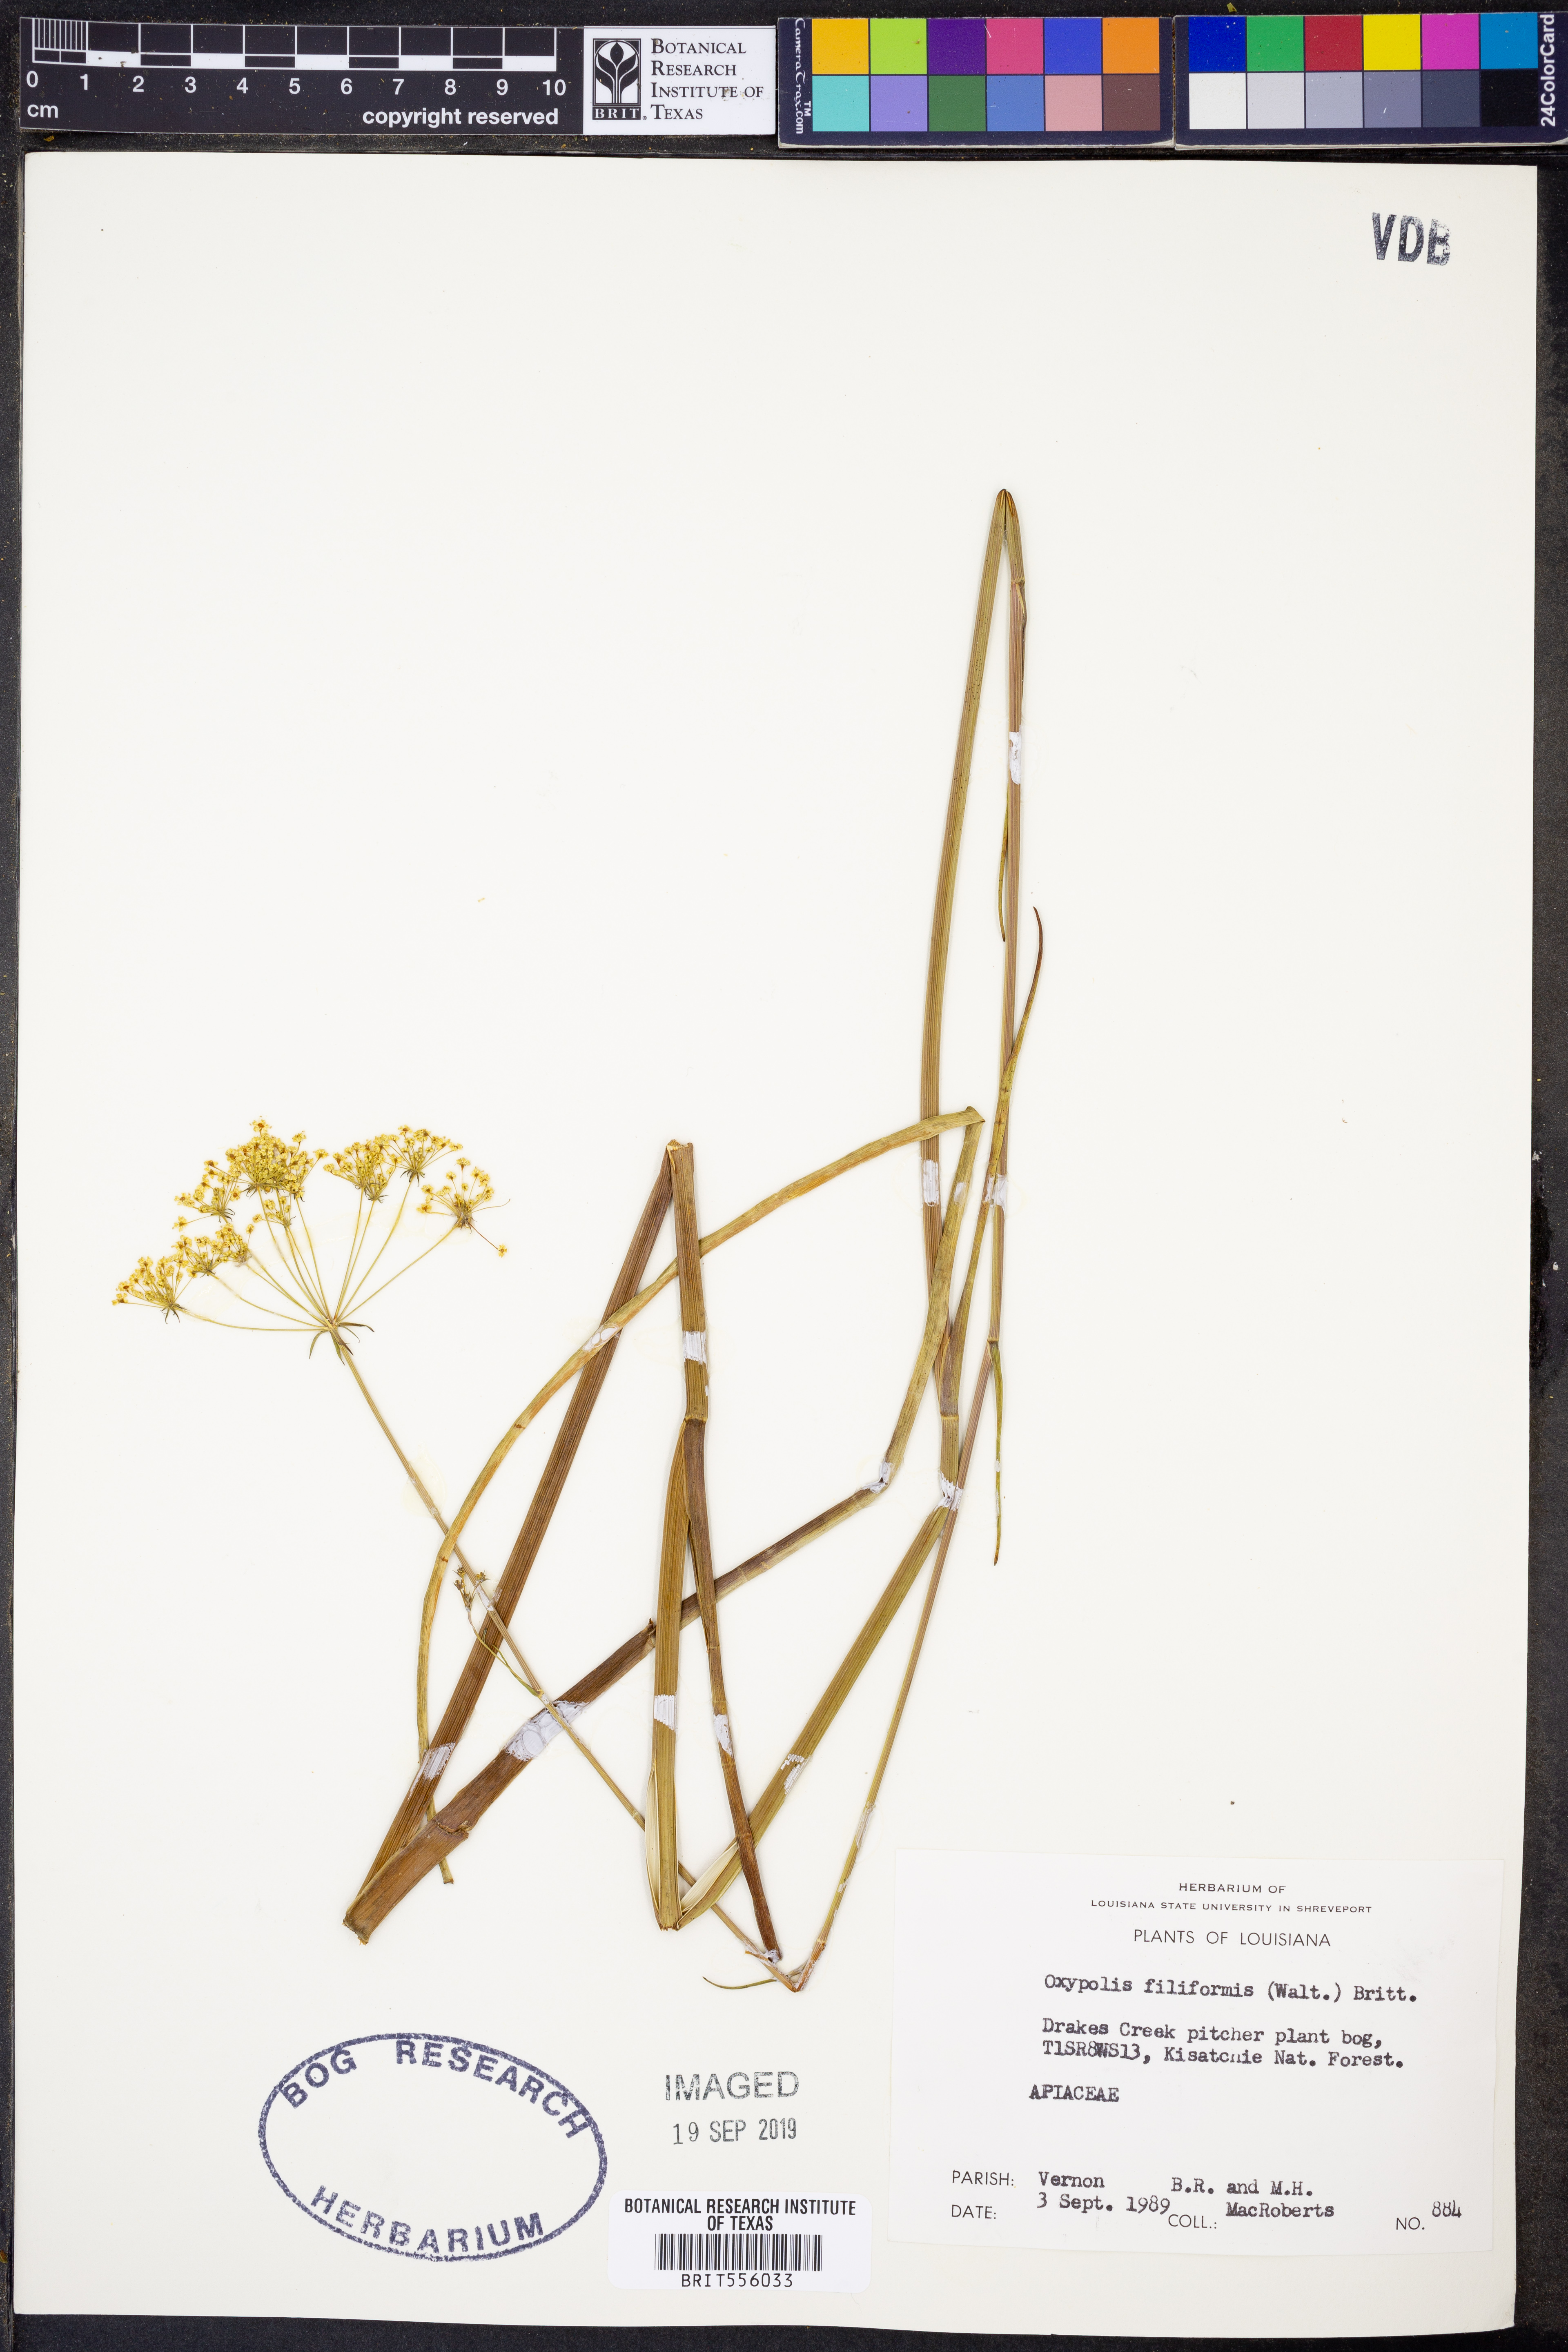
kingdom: Plantae
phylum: Tracheophyta
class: Magnoliopsida
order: Apiales
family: Apiaceae
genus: Tiedemannia
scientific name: Tiedemannia filiformis
